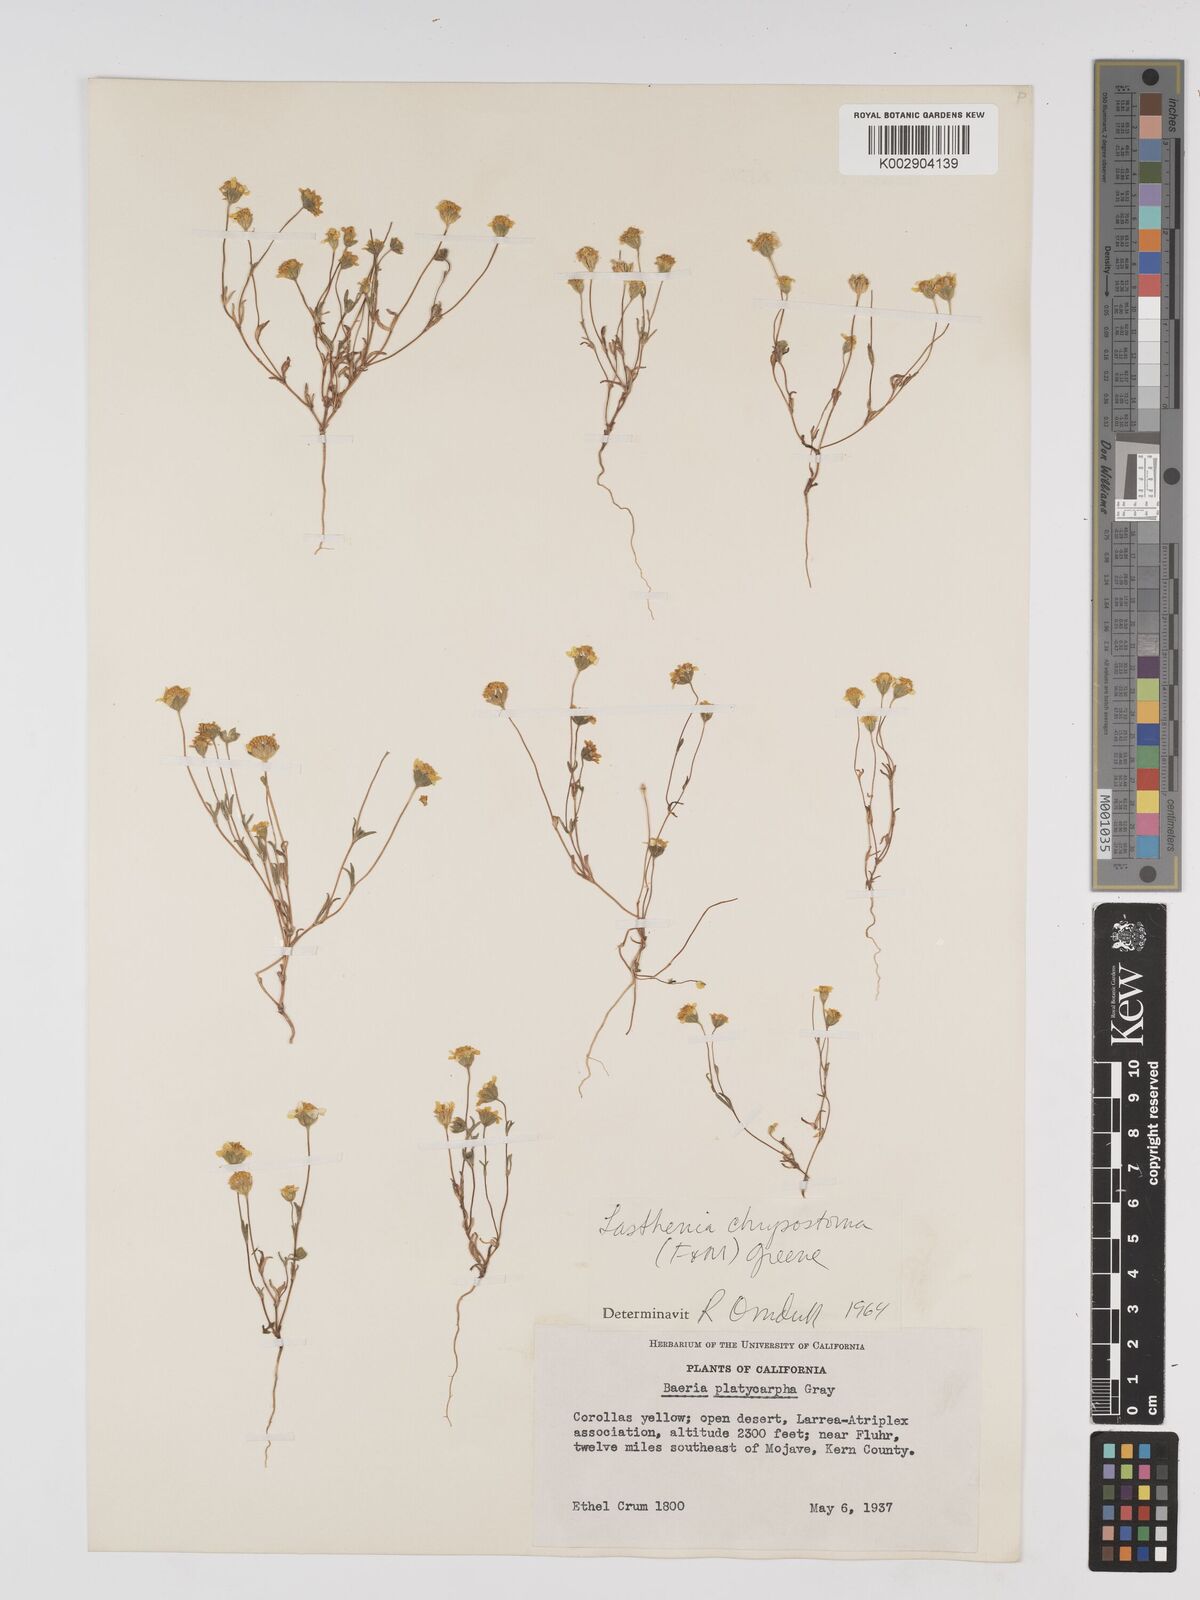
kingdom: Plantae
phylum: Tracheophyta
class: Magnoliopsida
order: Asterales
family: Asteraceae
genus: Lasthenia
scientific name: Lasthenia chrysantha
